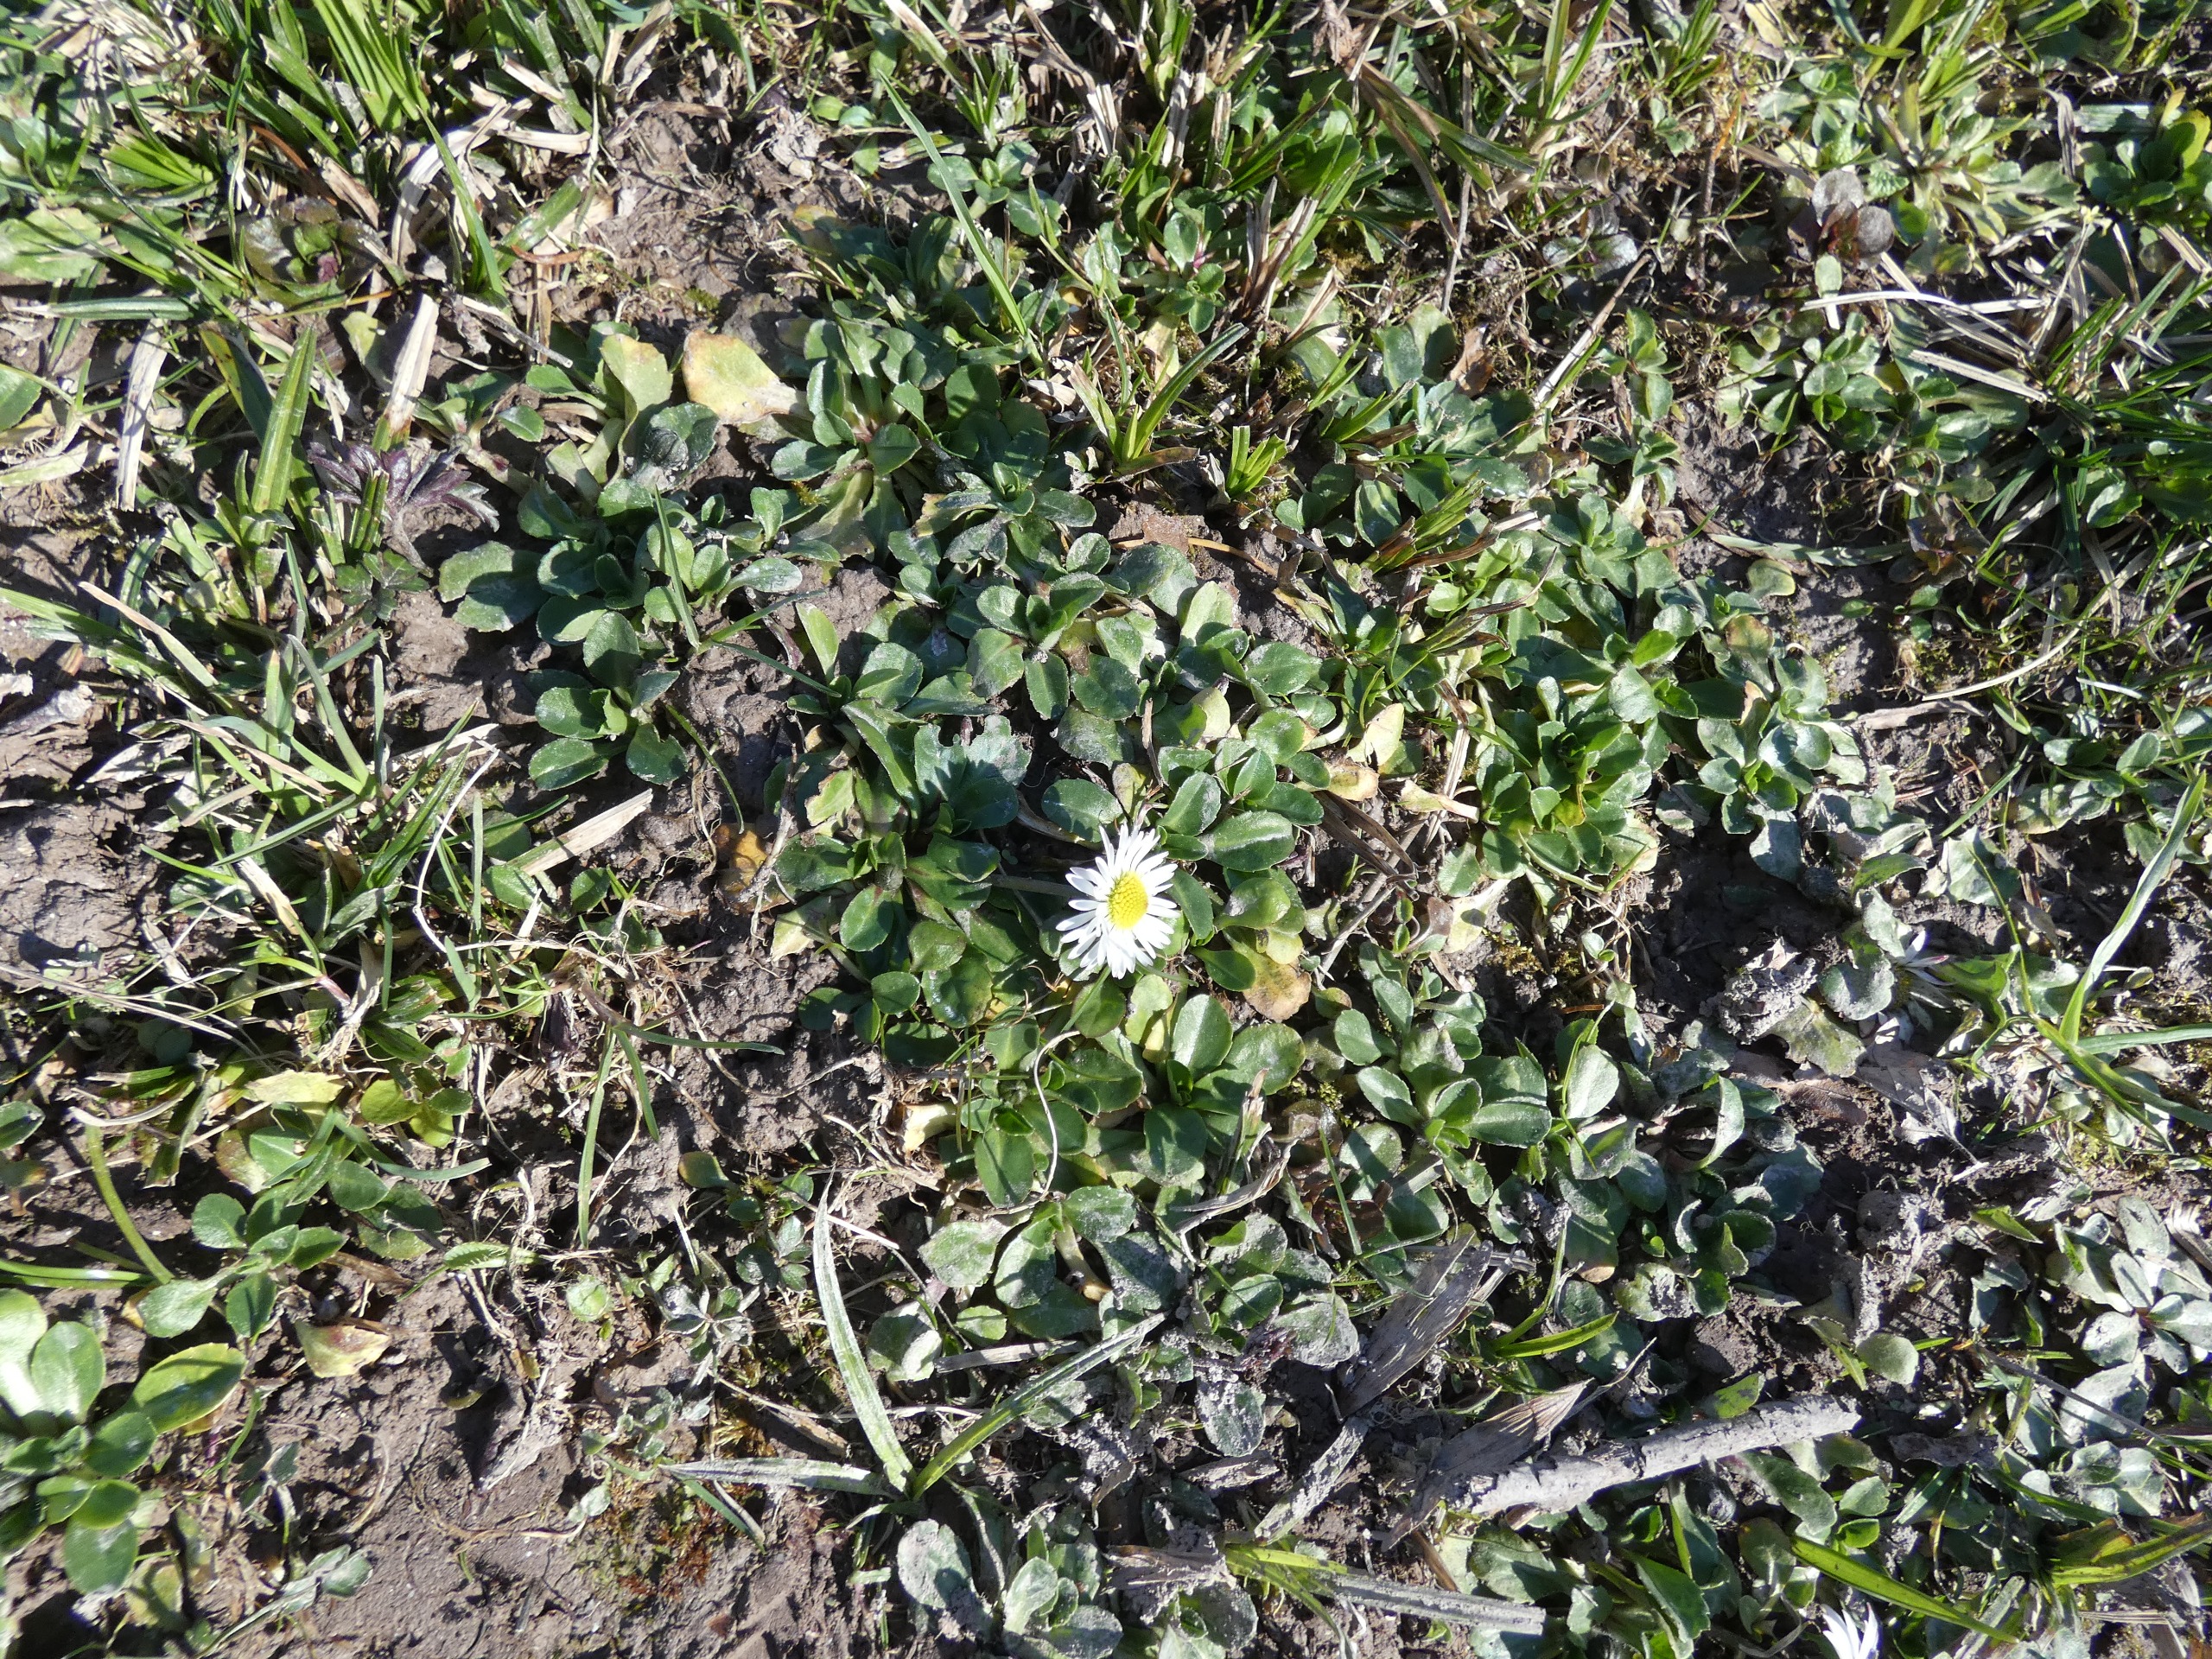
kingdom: Plantae
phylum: Tracheophyta
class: Magnoliopsida
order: Asterales
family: Asteraceae
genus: Bellis
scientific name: Bellis perennis
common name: Tusindfryd
